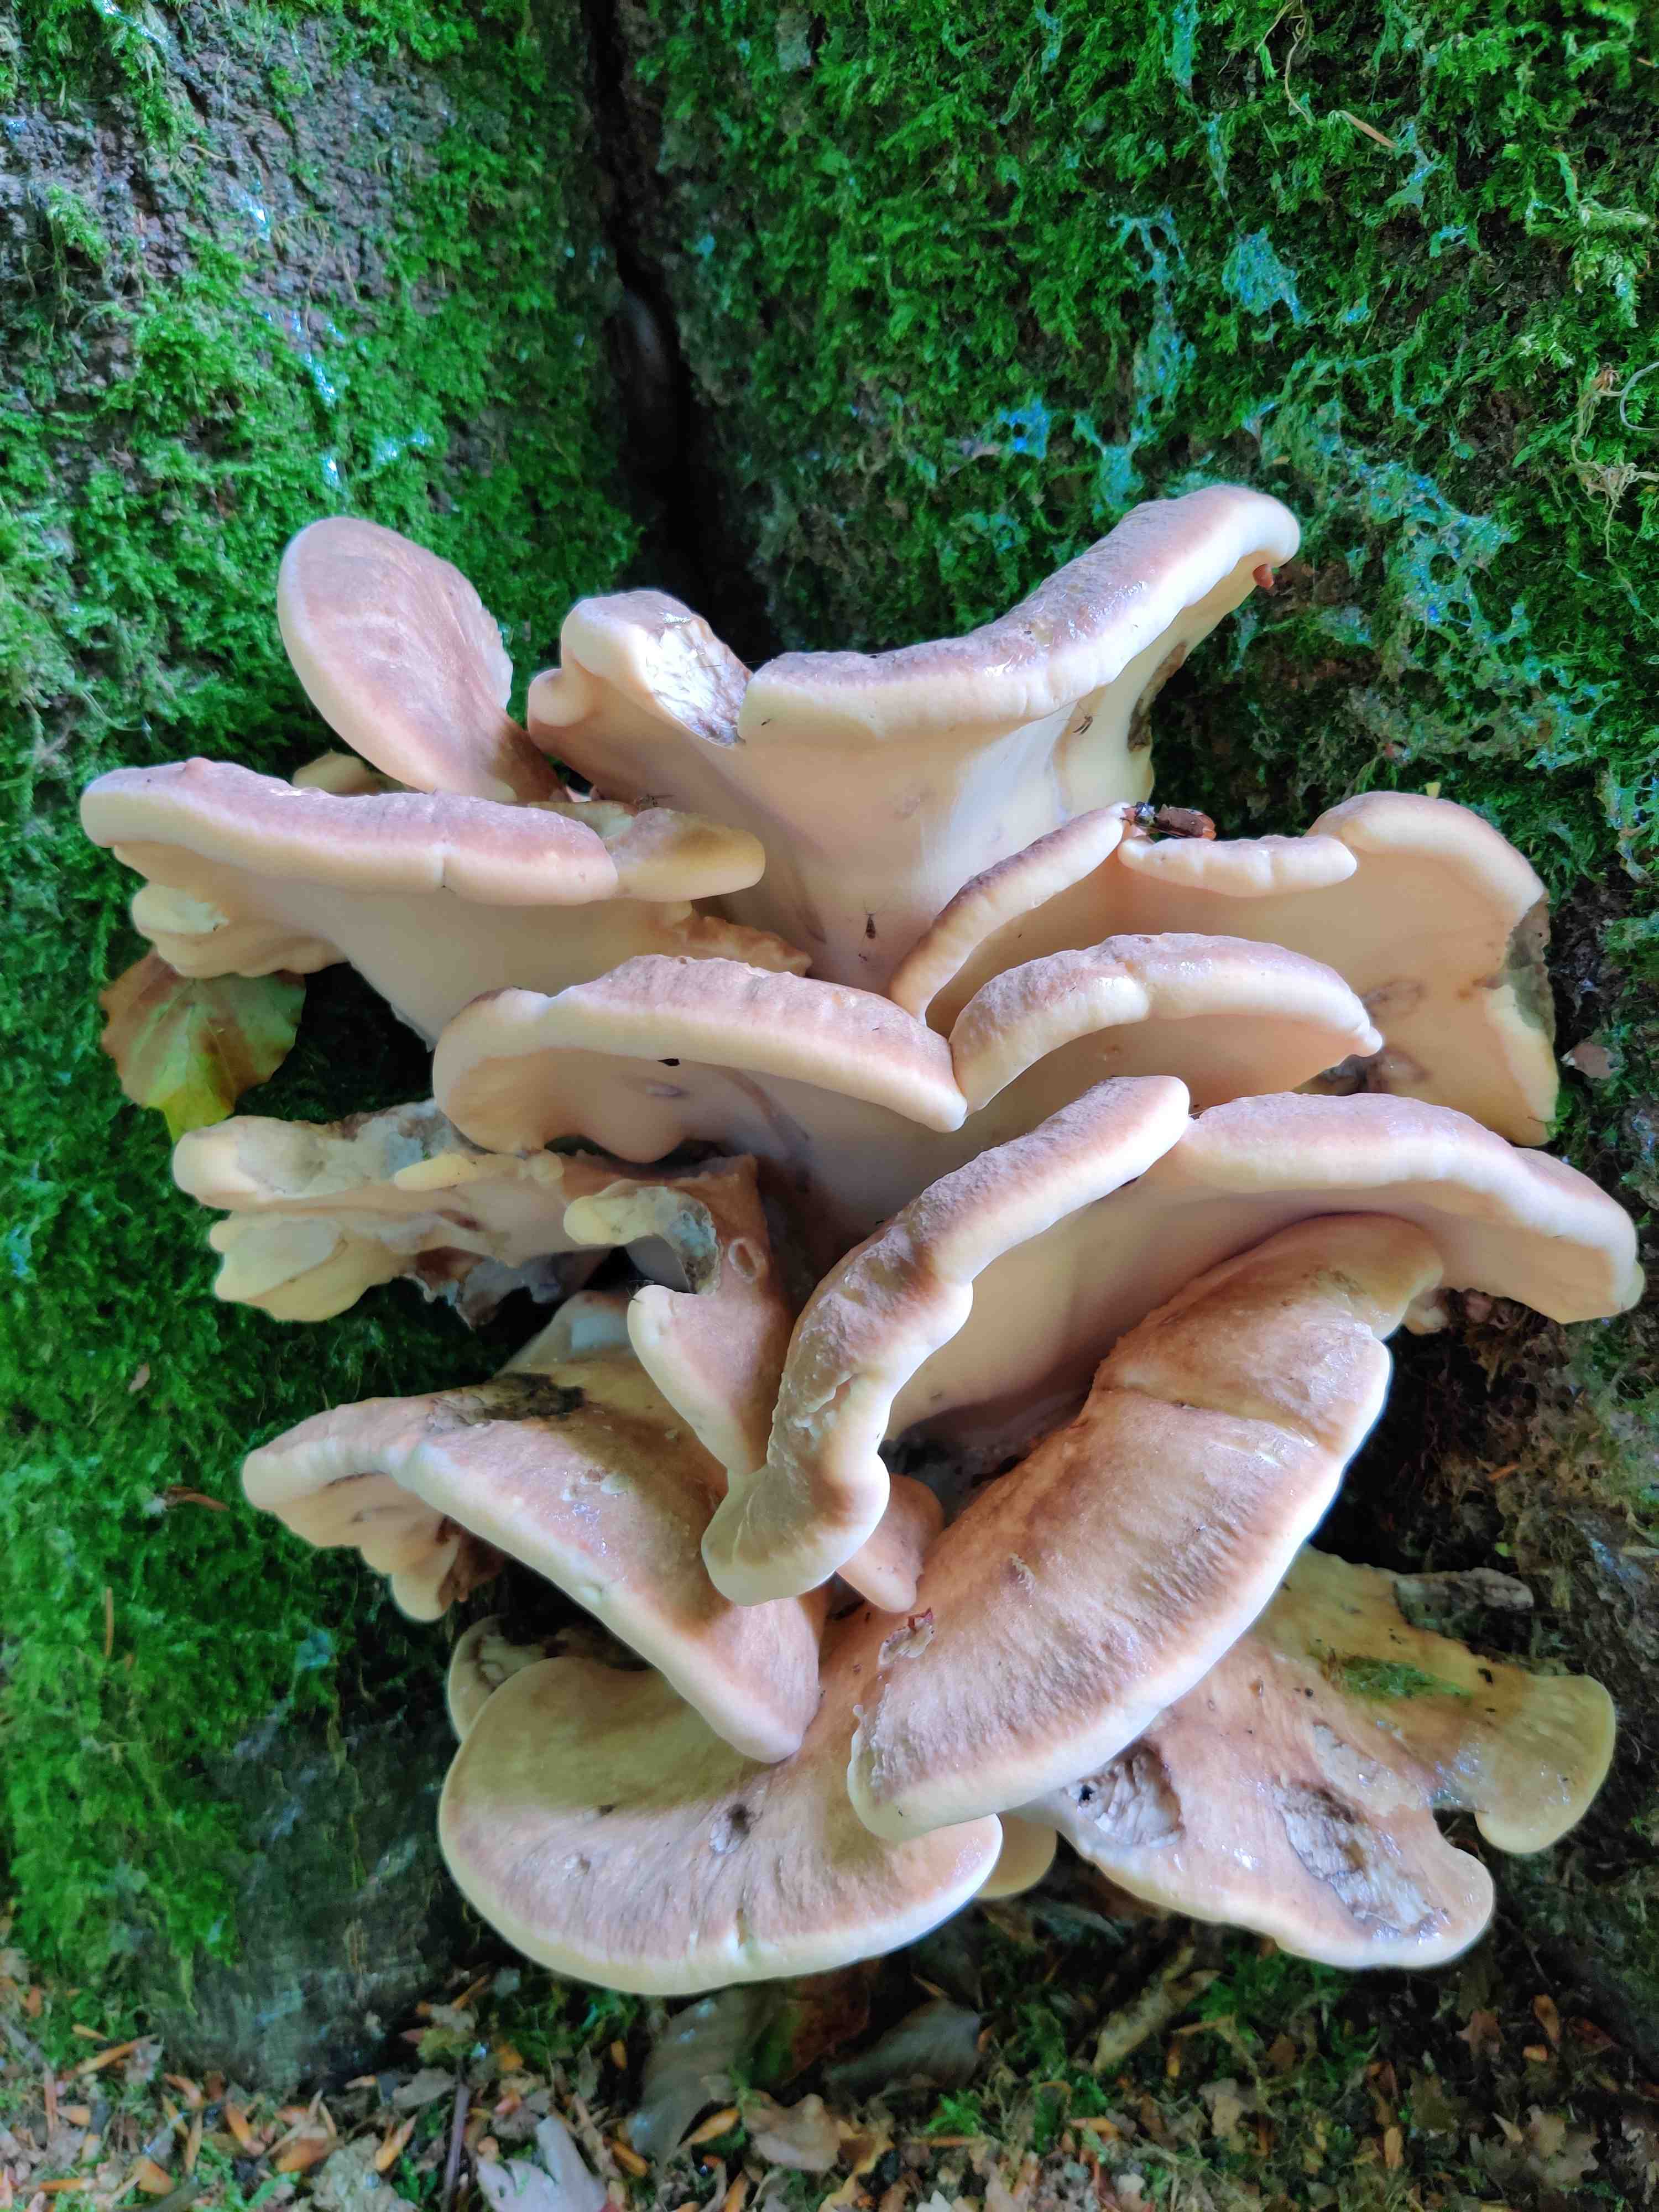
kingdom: Fungi
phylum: Basidiomycota
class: Agaricomycetes
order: Polyporales
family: Meripilaceae
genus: Meripilus
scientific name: Meripilus giganteus
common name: kæmpeporesvamp
